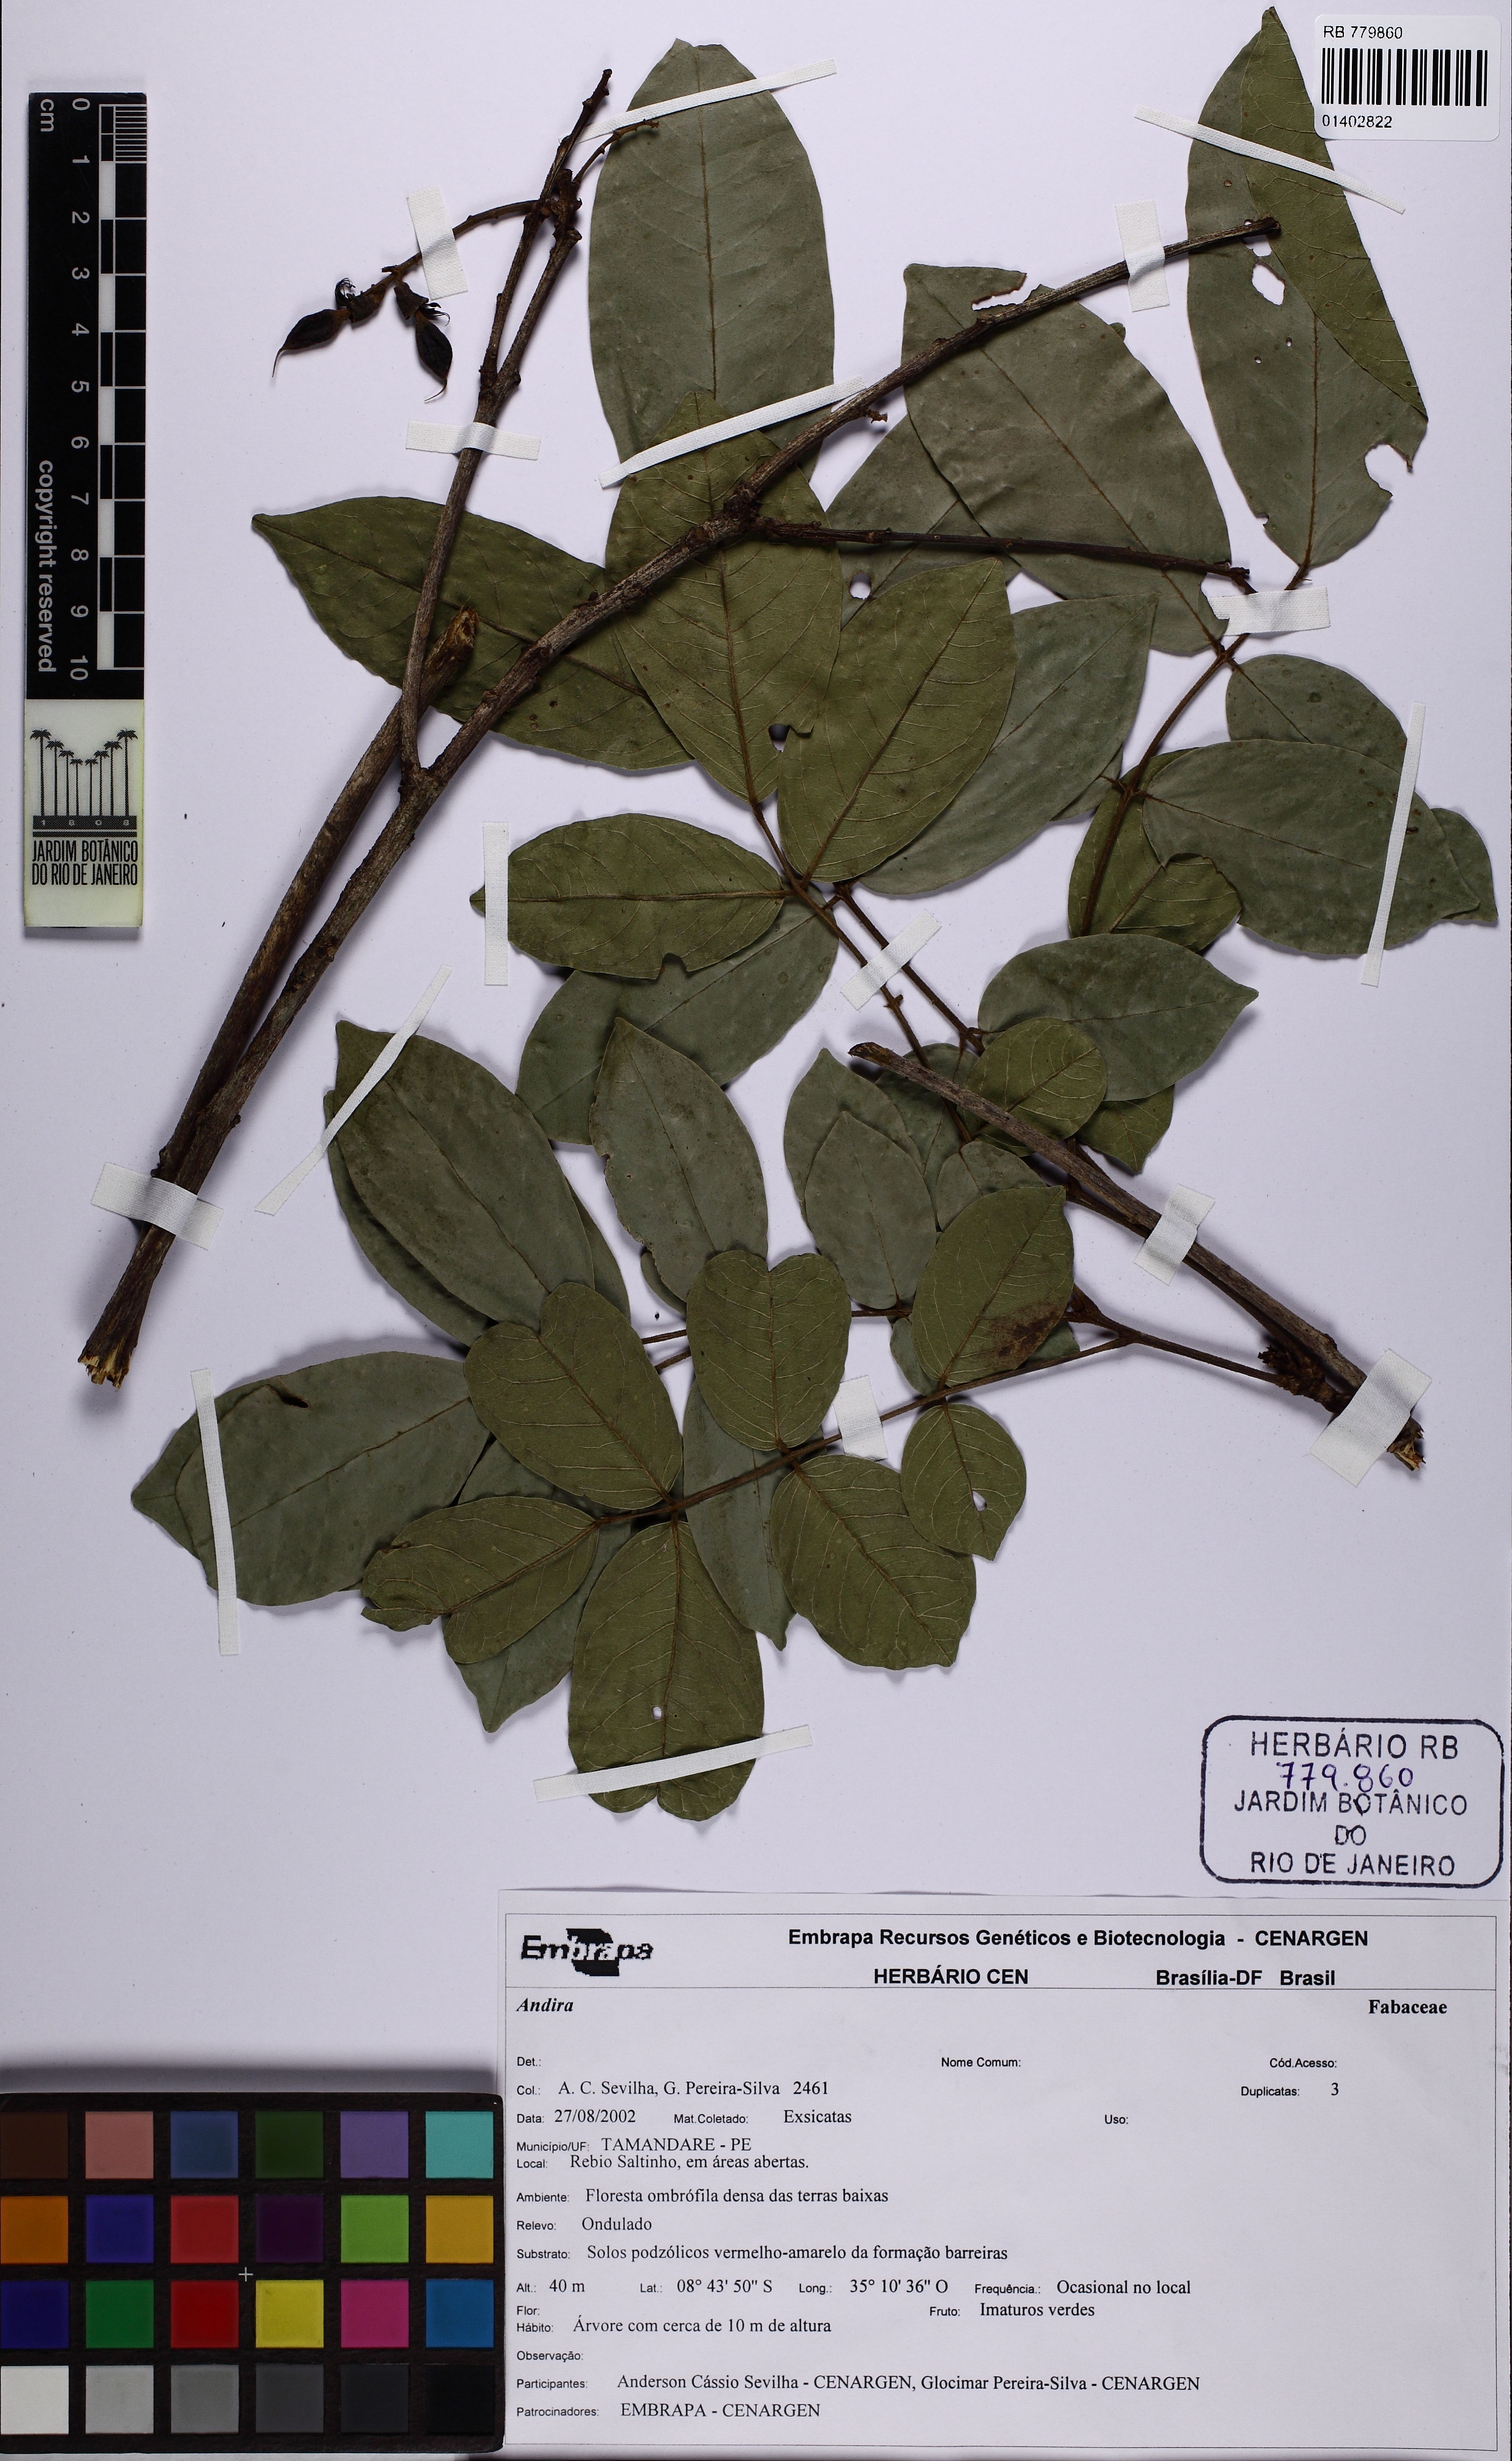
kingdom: Plantae
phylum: Tracheophyta
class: Magnoliopsida
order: Fabales
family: Fabaceae
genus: Andira
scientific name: Andira
